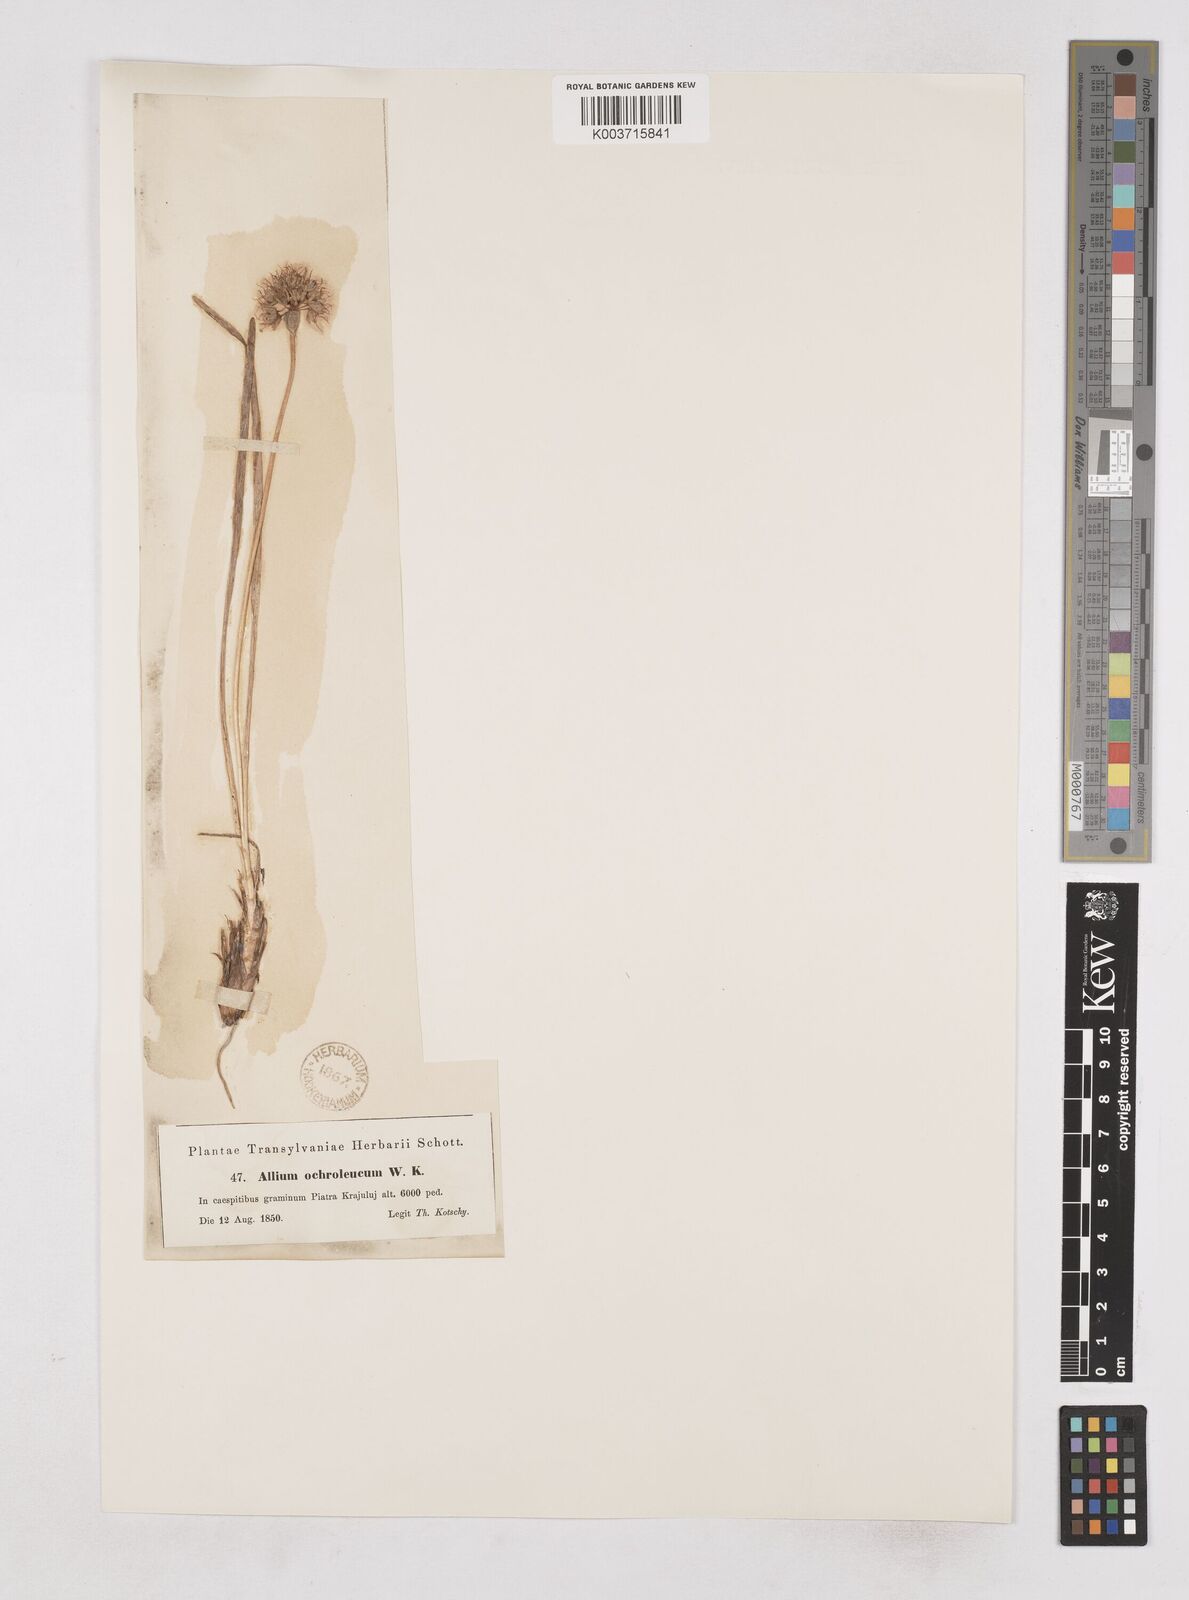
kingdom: Plantae
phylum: Tracheophyta
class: Liliopsida
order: Asparagales
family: Amaryllidaceae
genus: Allium
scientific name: Allium ericetorum
